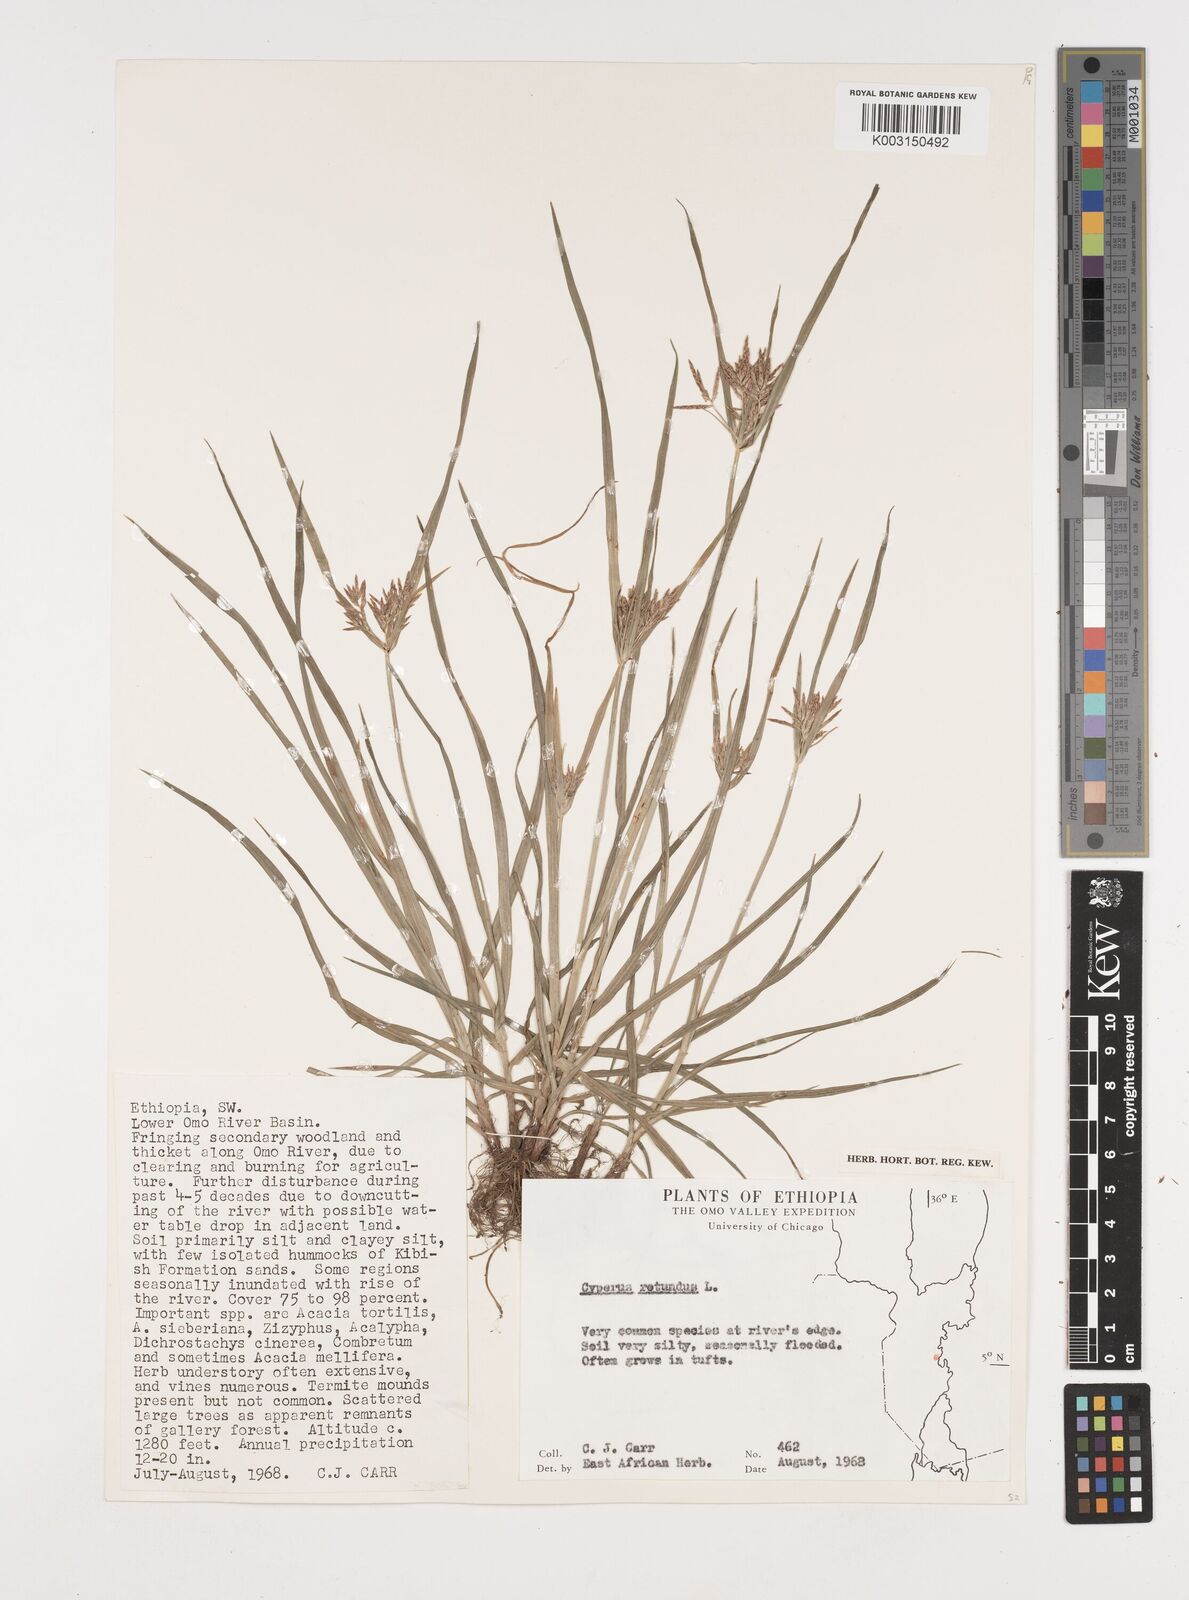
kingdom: Plantae
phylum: Tracheophyta
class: Liliopsida
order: Poales
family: Cyperaceae
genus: Cyperus
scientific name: Cyperus rotundus
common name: Nutgrass
